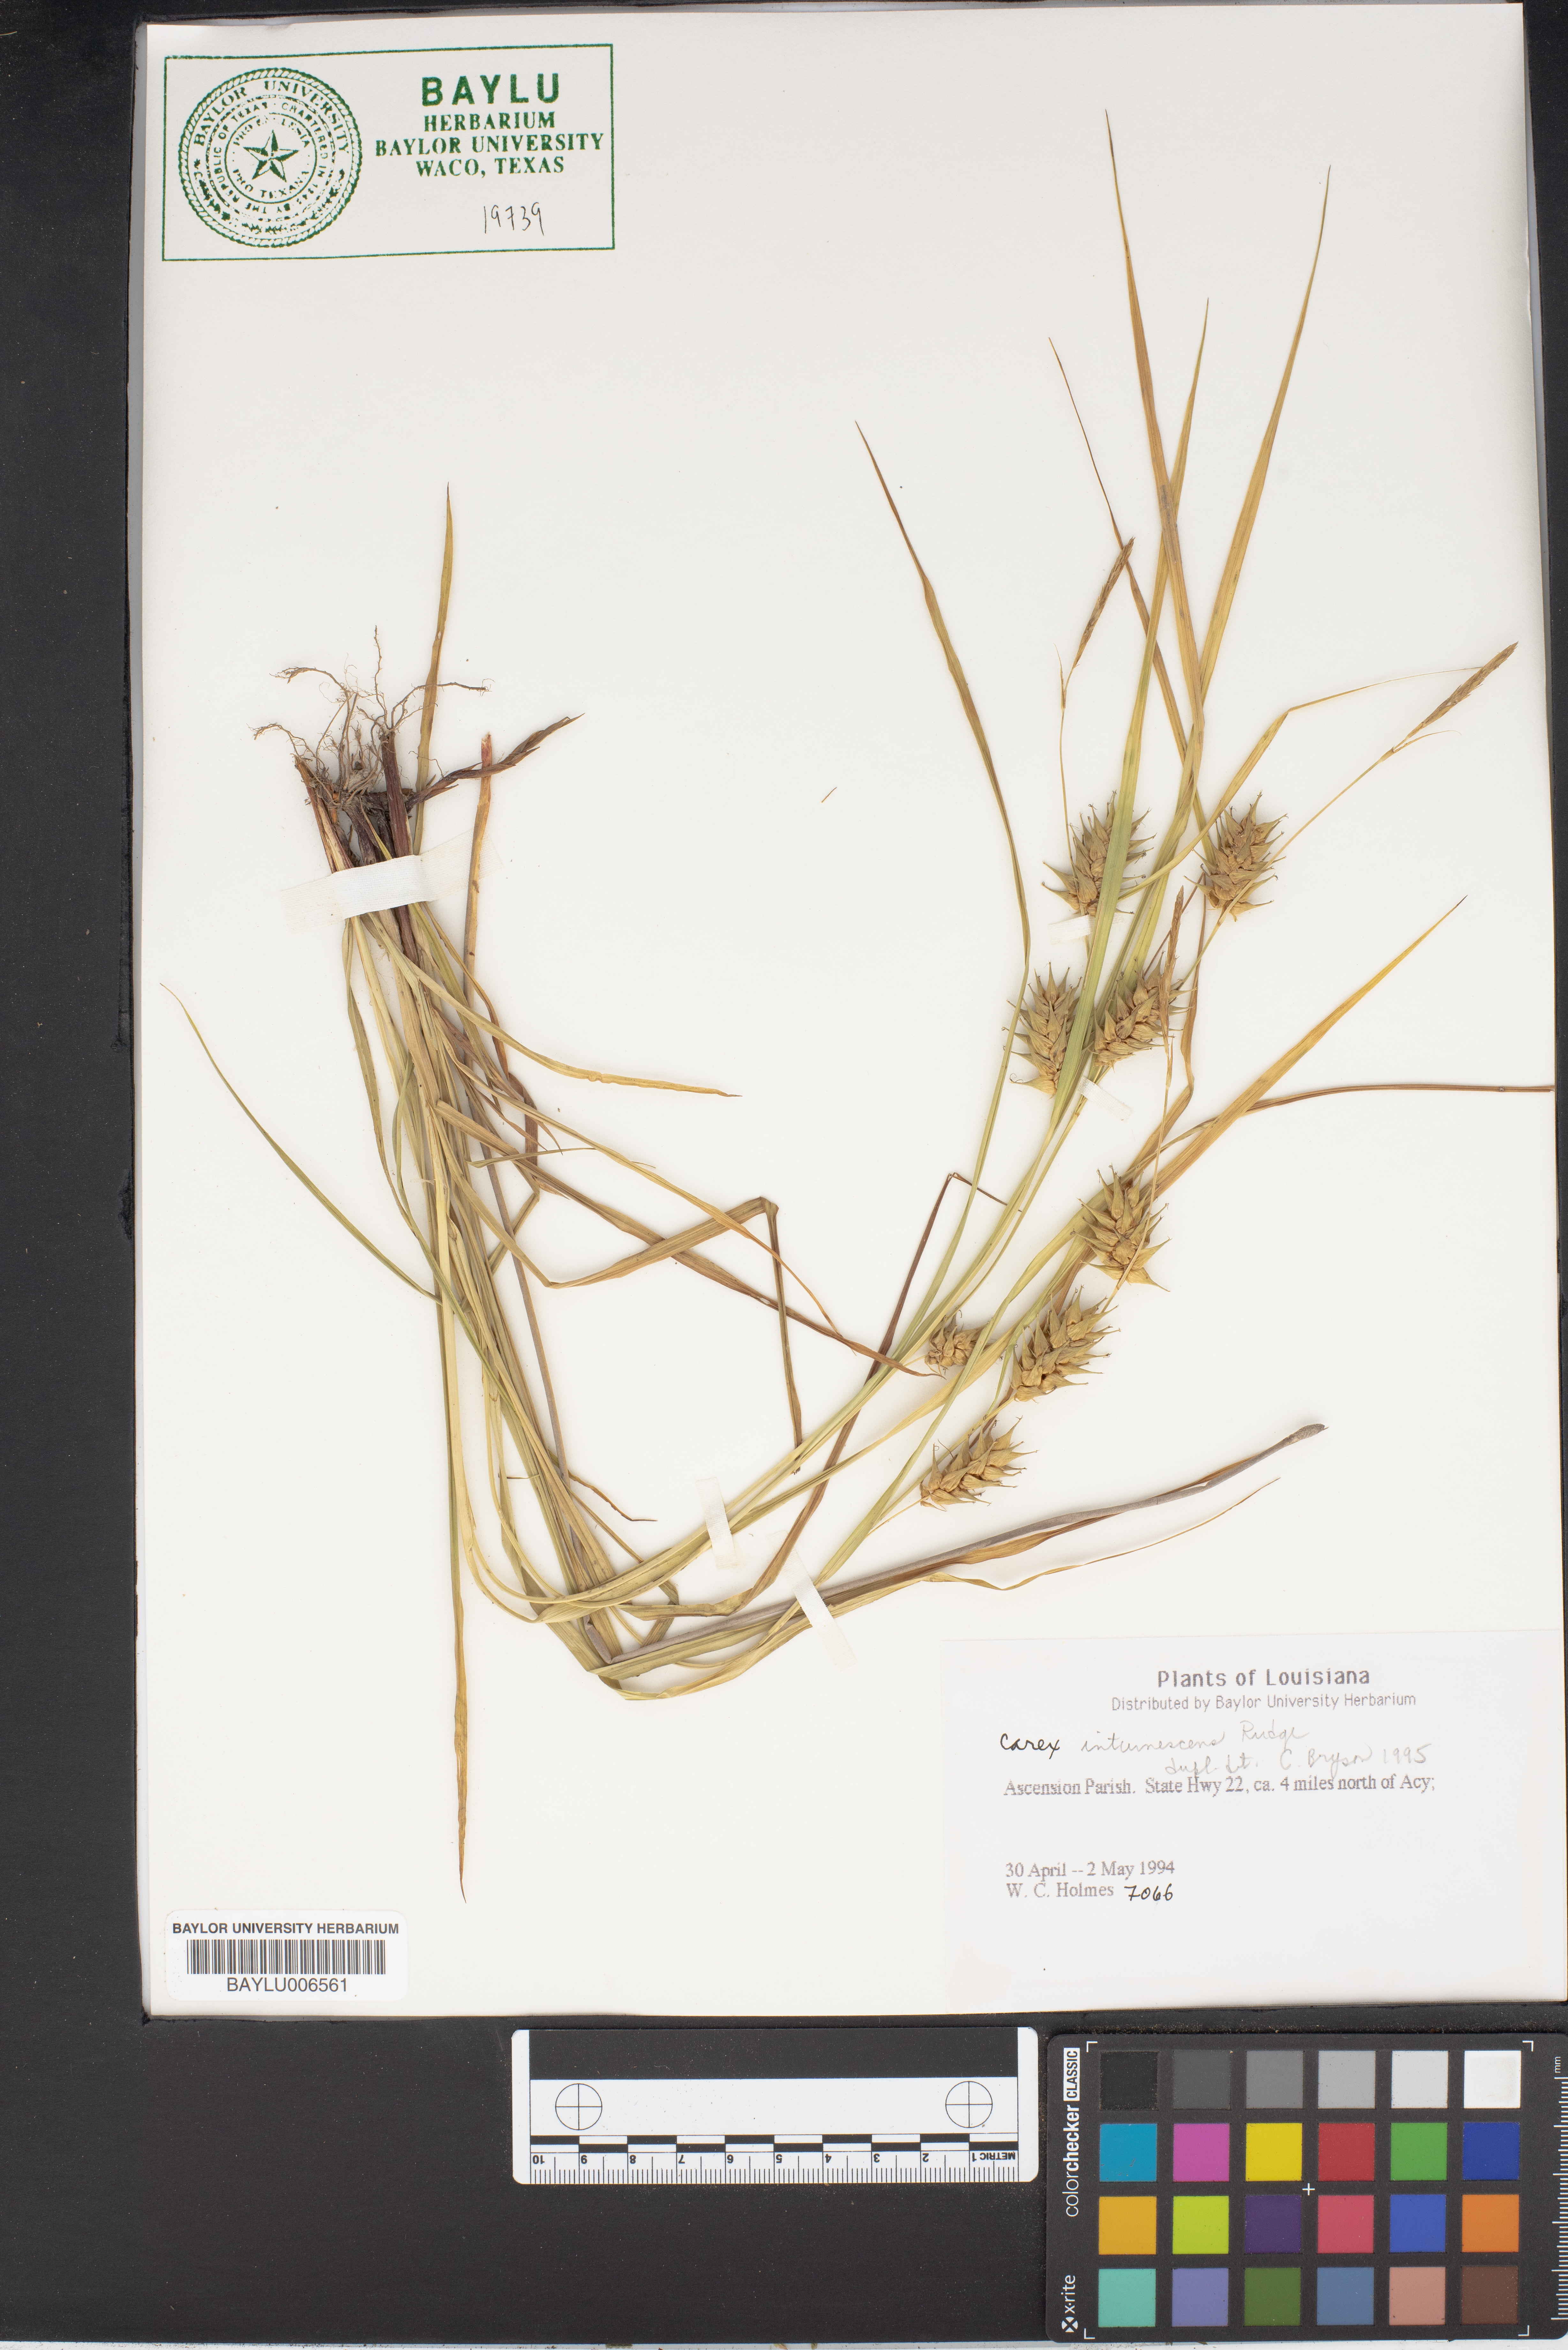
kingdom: Plantae
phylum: Tracheophyta
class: Liliopsida
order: Poales
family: Cyperaceae
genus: Carex
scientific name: Carex intumescens
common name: Greater bladder sedge
